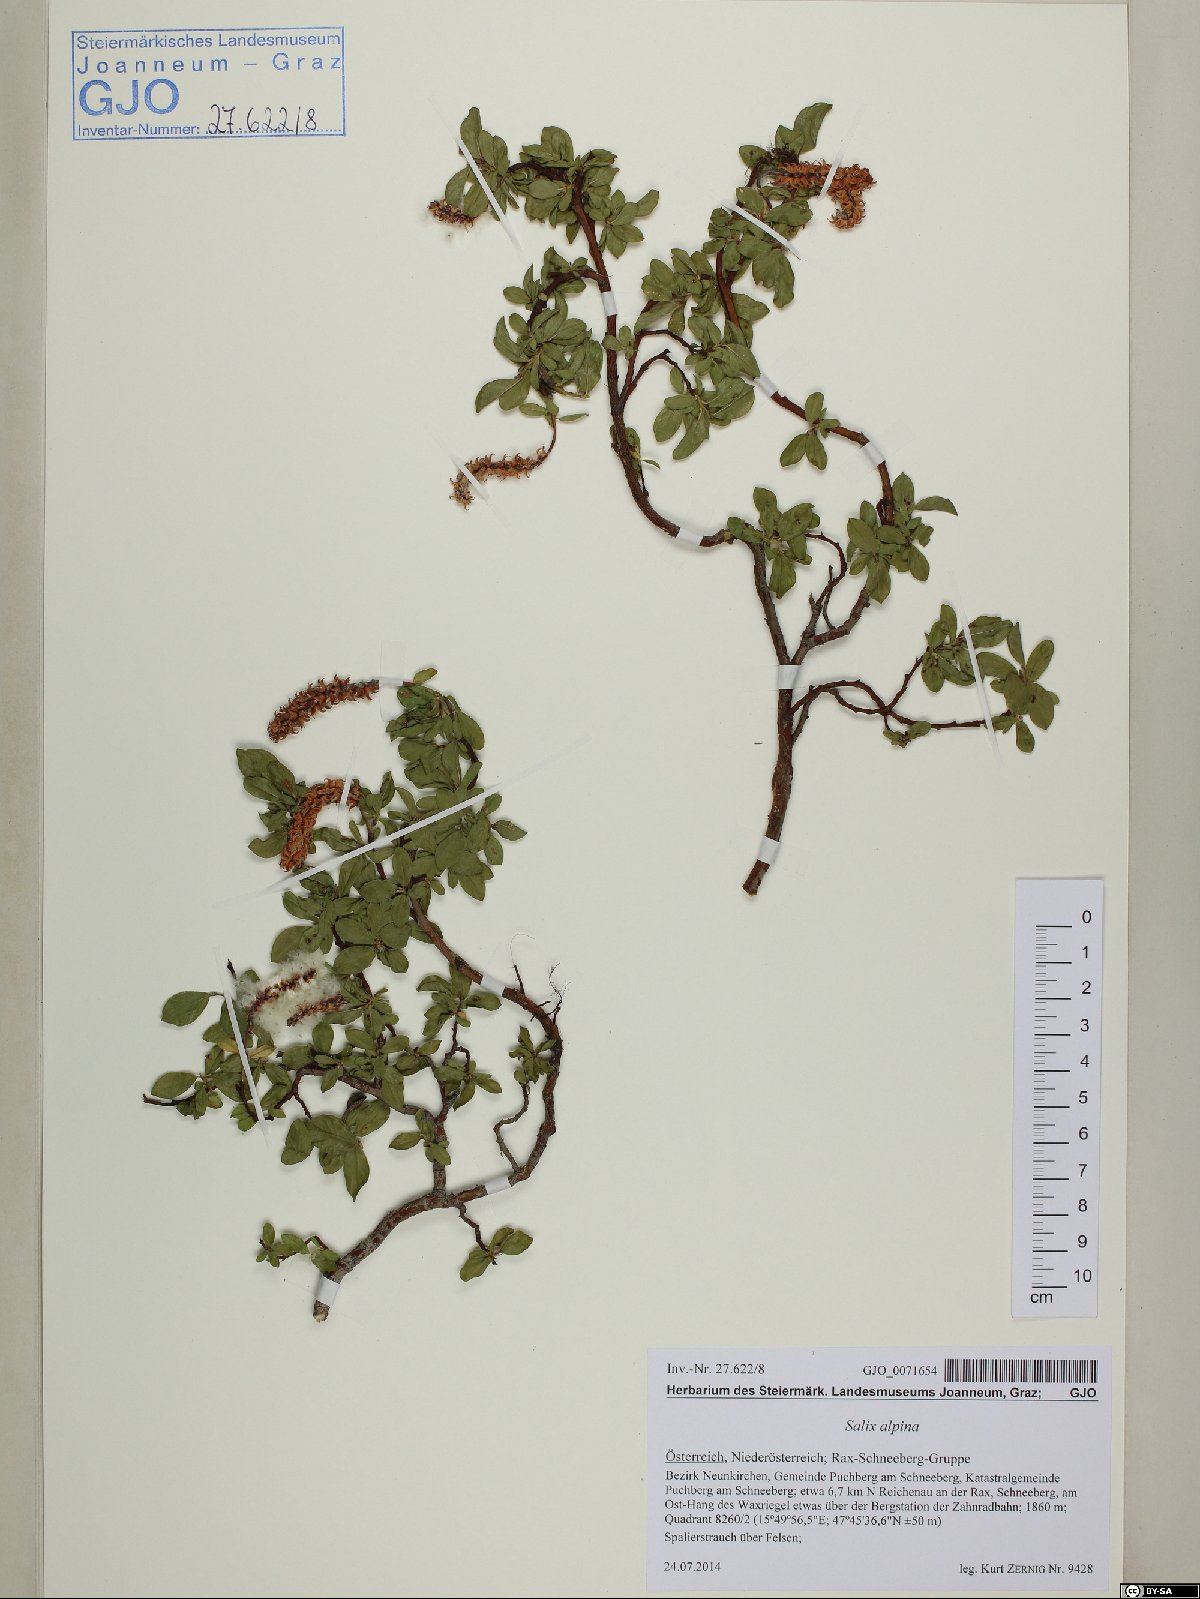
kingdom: Plantae
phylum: Tracheophyta
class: Magnoliopsida
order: Malpighiales
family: Salicaceae
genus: Salix
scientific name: Salix alpina
